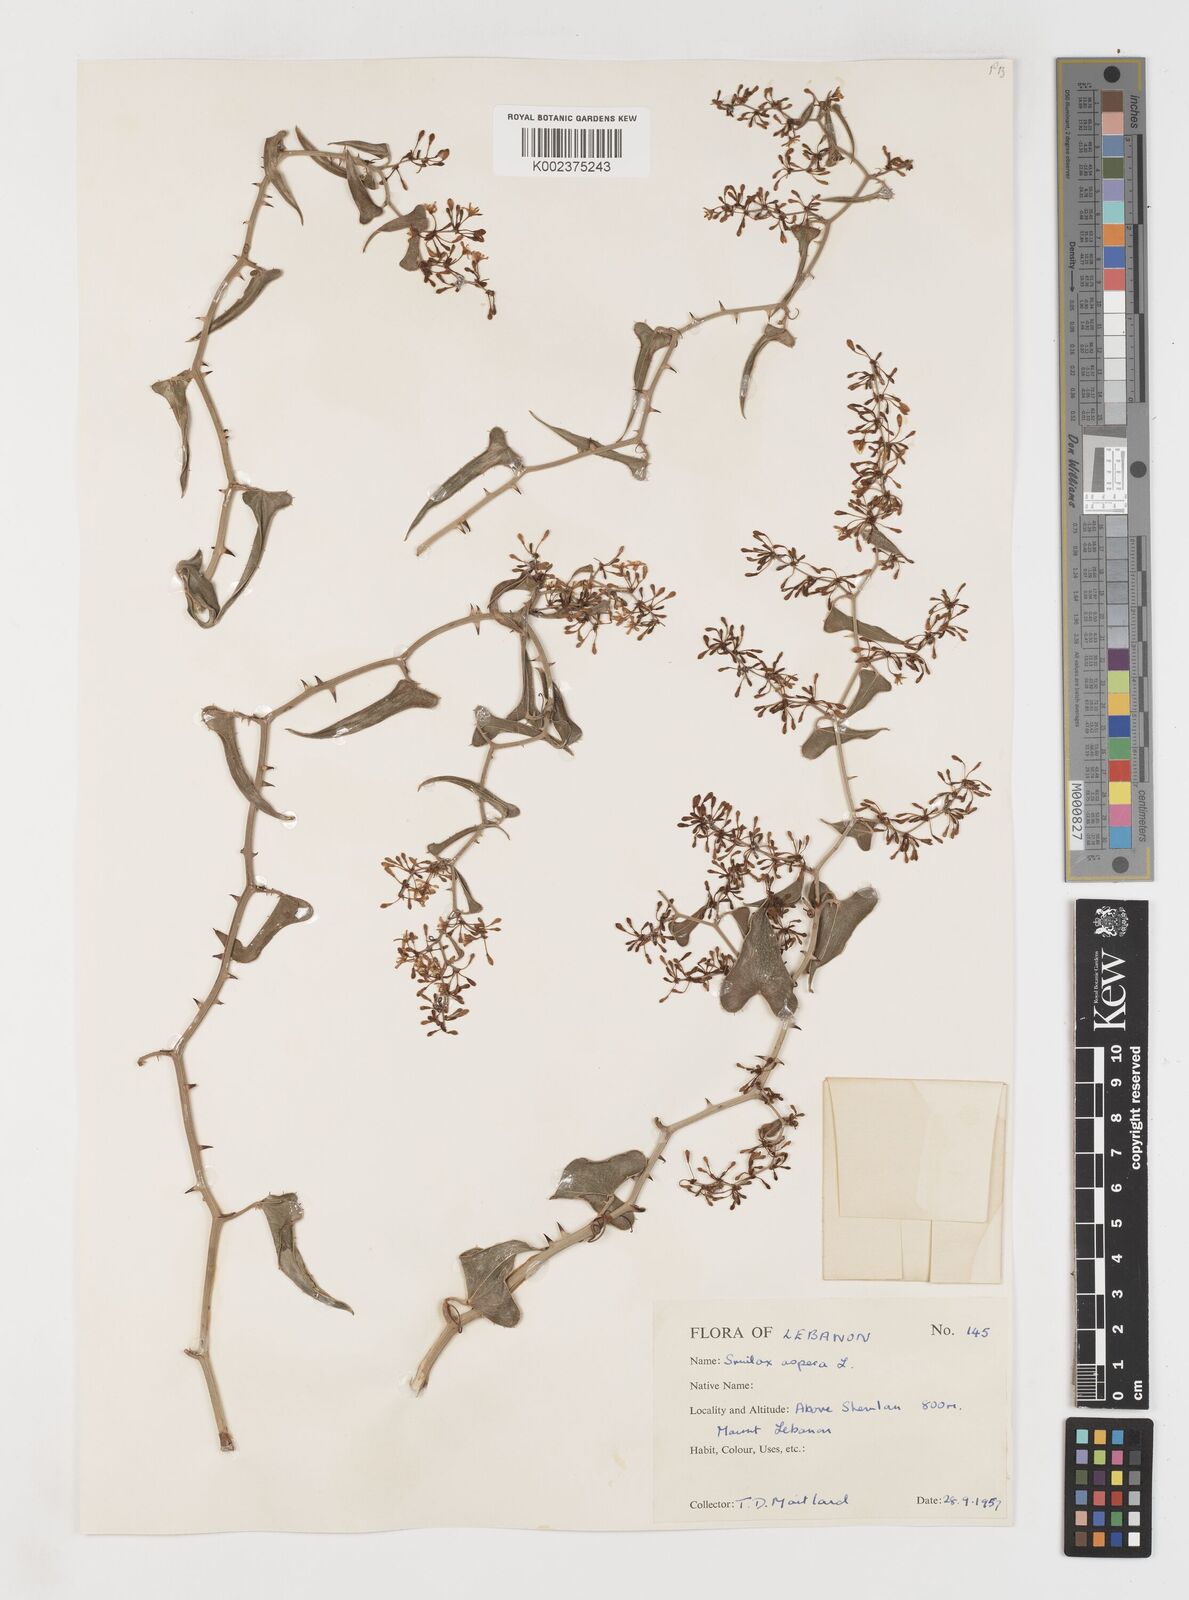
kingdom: Plantae
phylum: Tracheophyta
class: Liliopsida
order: Liliales
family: Smilacaceae
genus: Smilax
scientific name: Smilax aspera
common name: Common smilax
